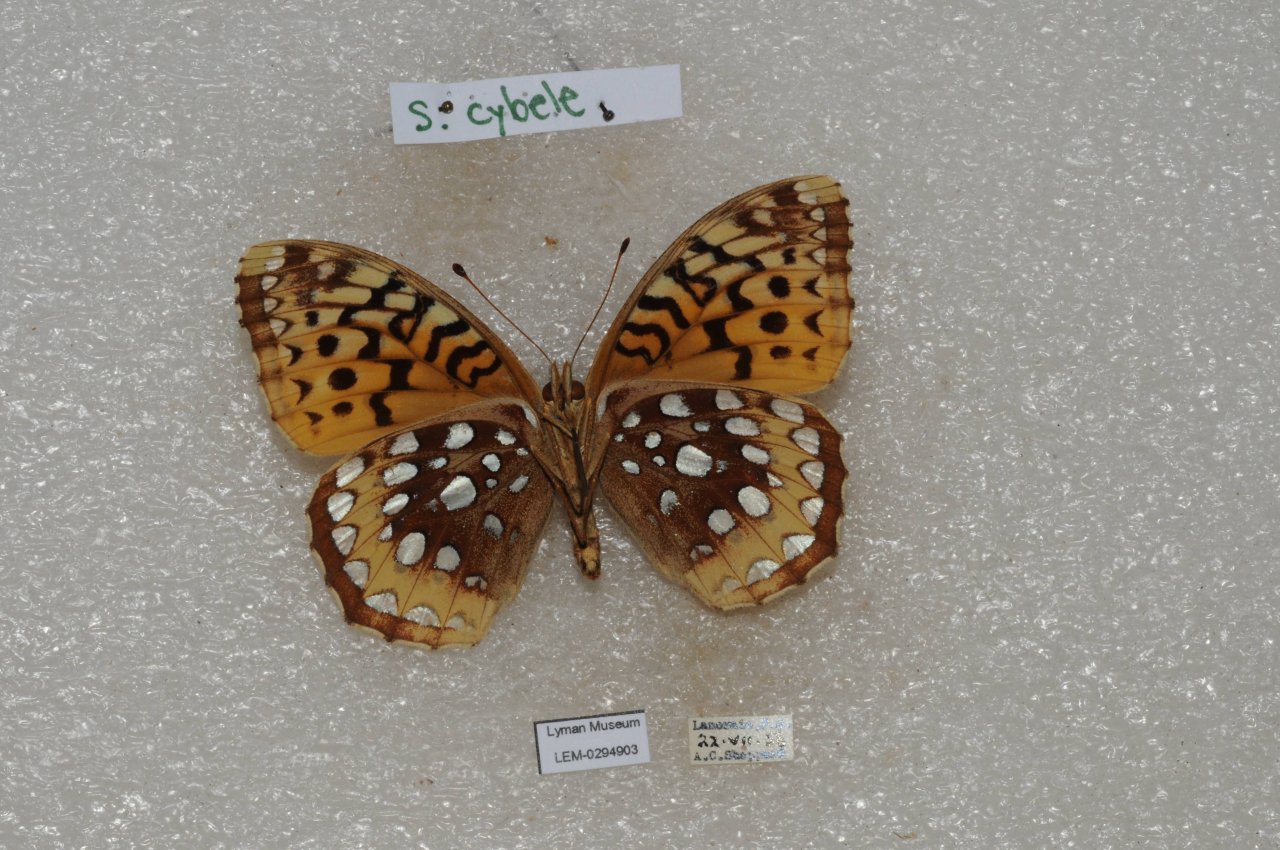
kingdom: Animalia
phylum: Arthropoda
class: Insecta
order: Lepidoptera
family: Nymphalidae
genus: Speyeria
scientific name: Speyeria cybele
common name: Great Spangled Fritillary
